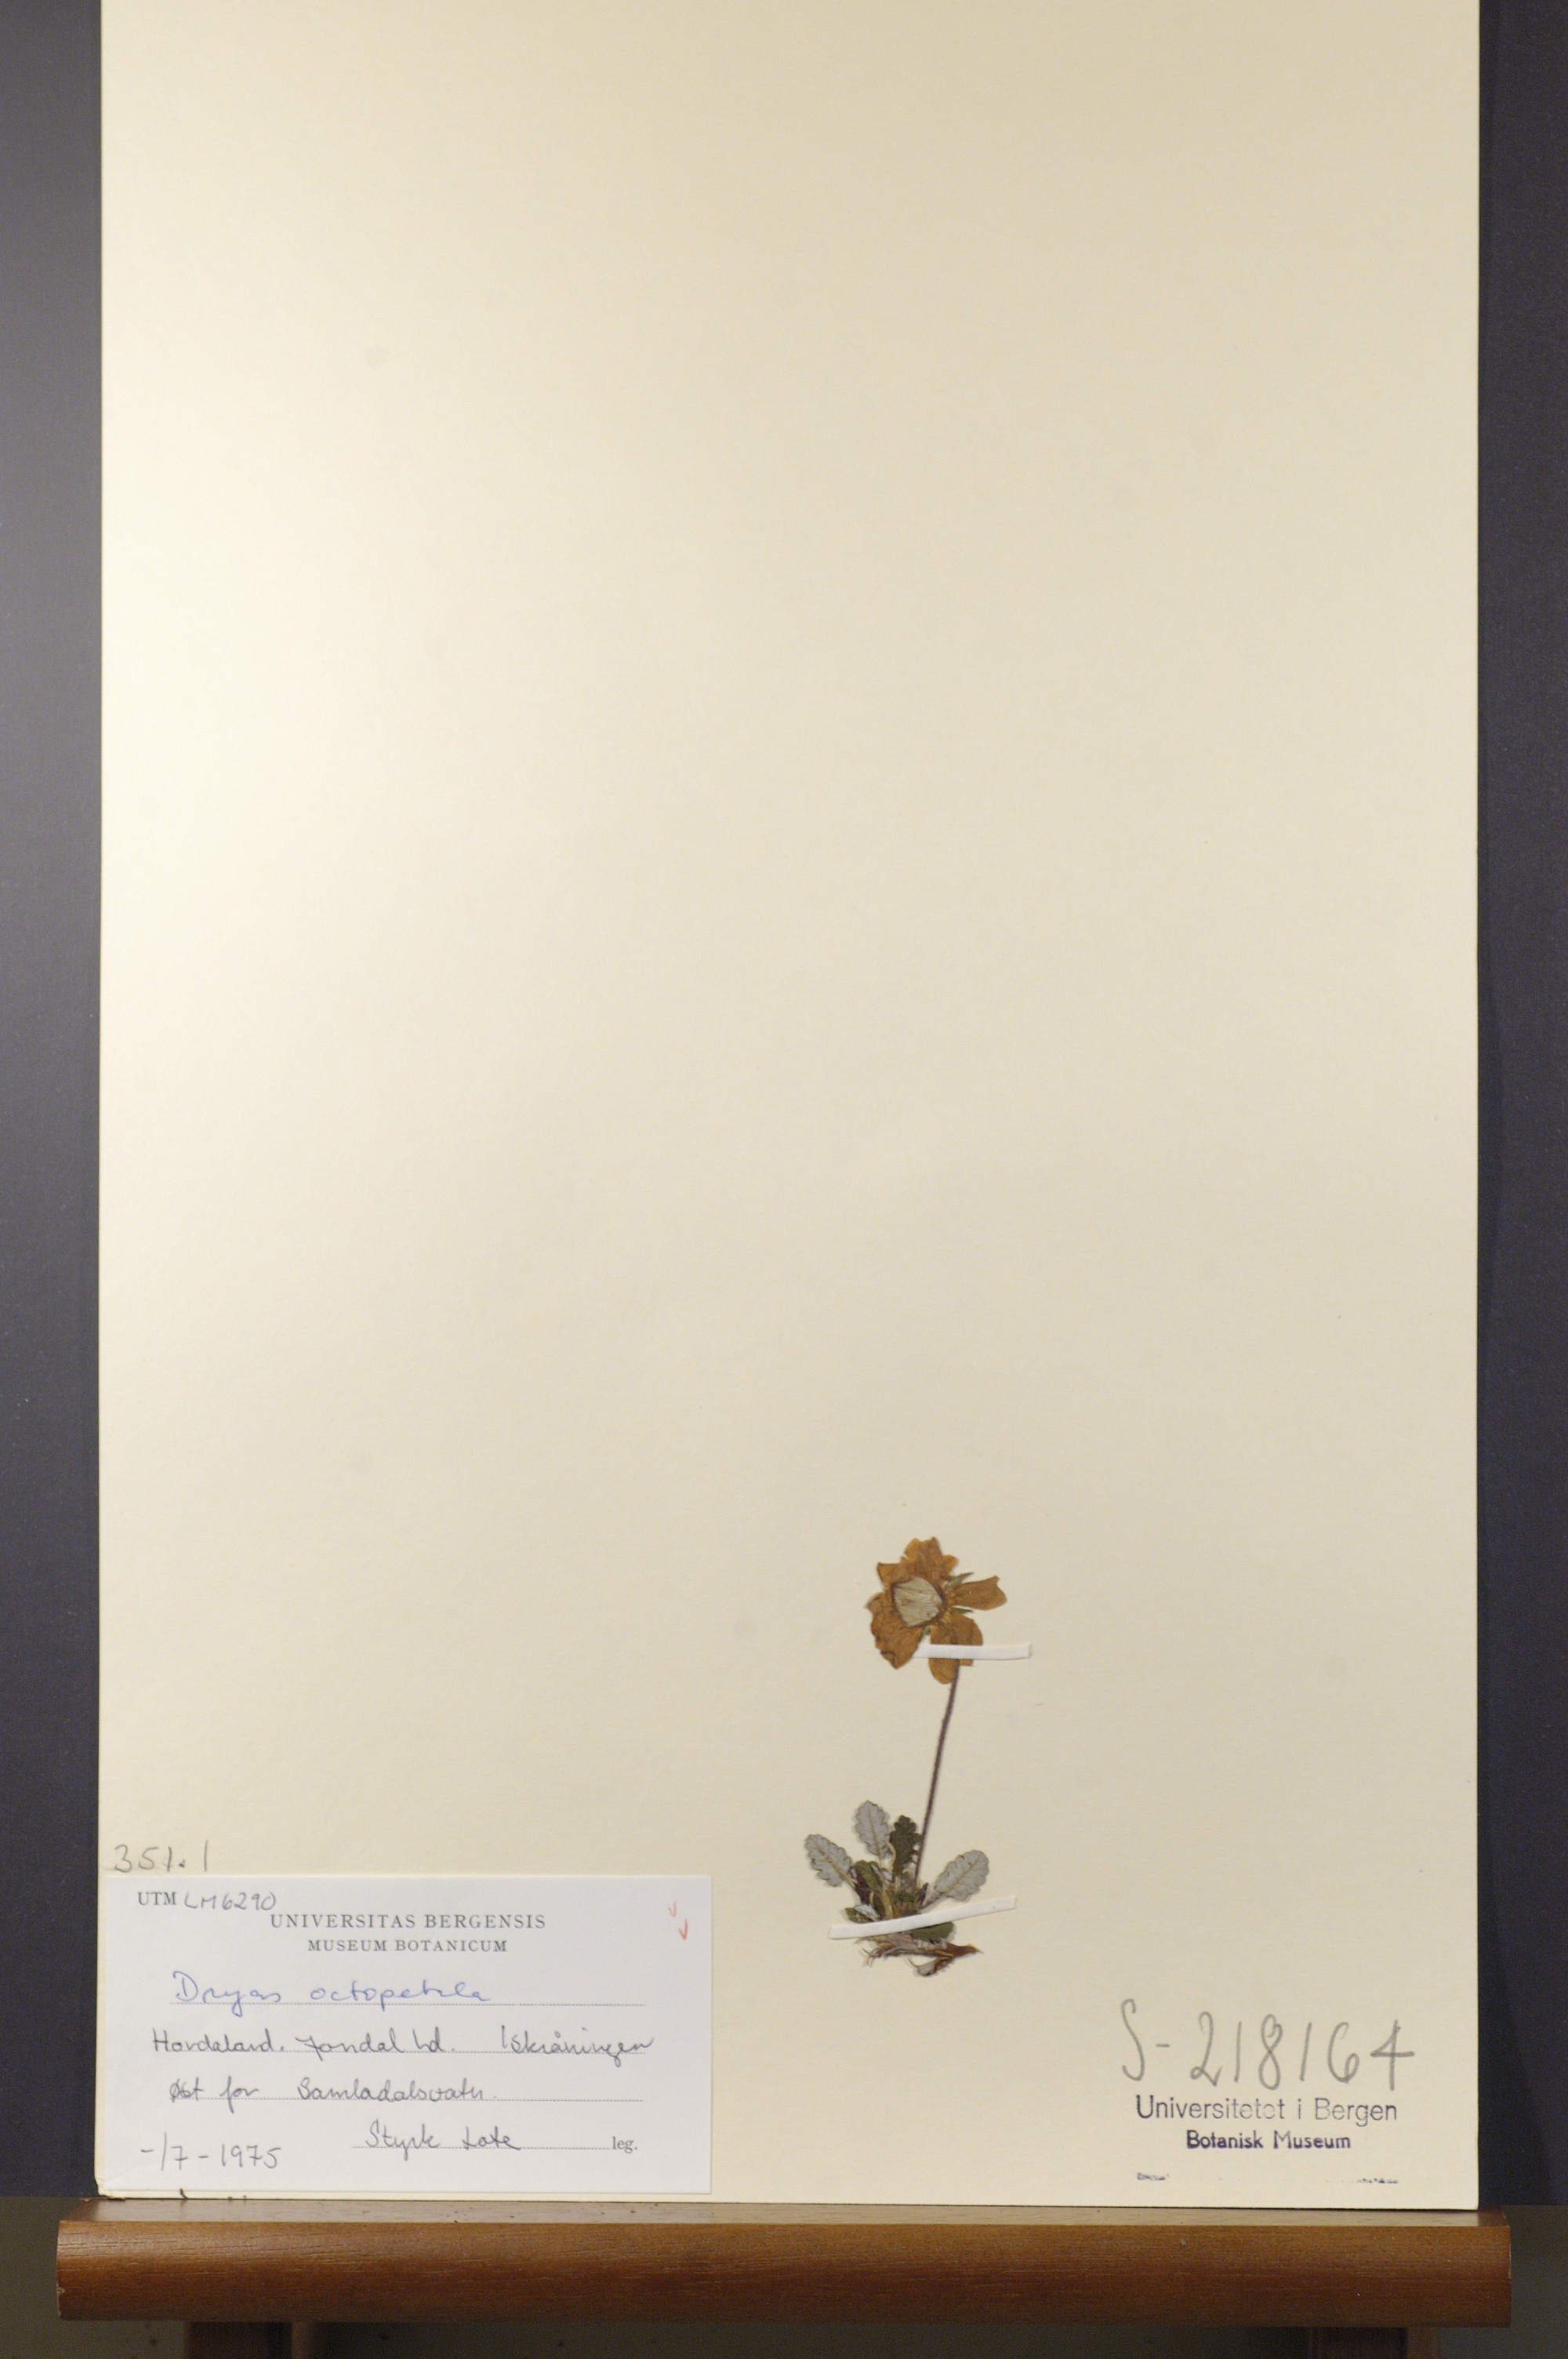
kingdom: Plantae
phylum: Tracheophyta
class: Magnoliopsida
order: Rosales
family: Rosaceae
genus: Dryas
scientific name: Dryas octopetala
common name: Eight-petal mountain-avens
